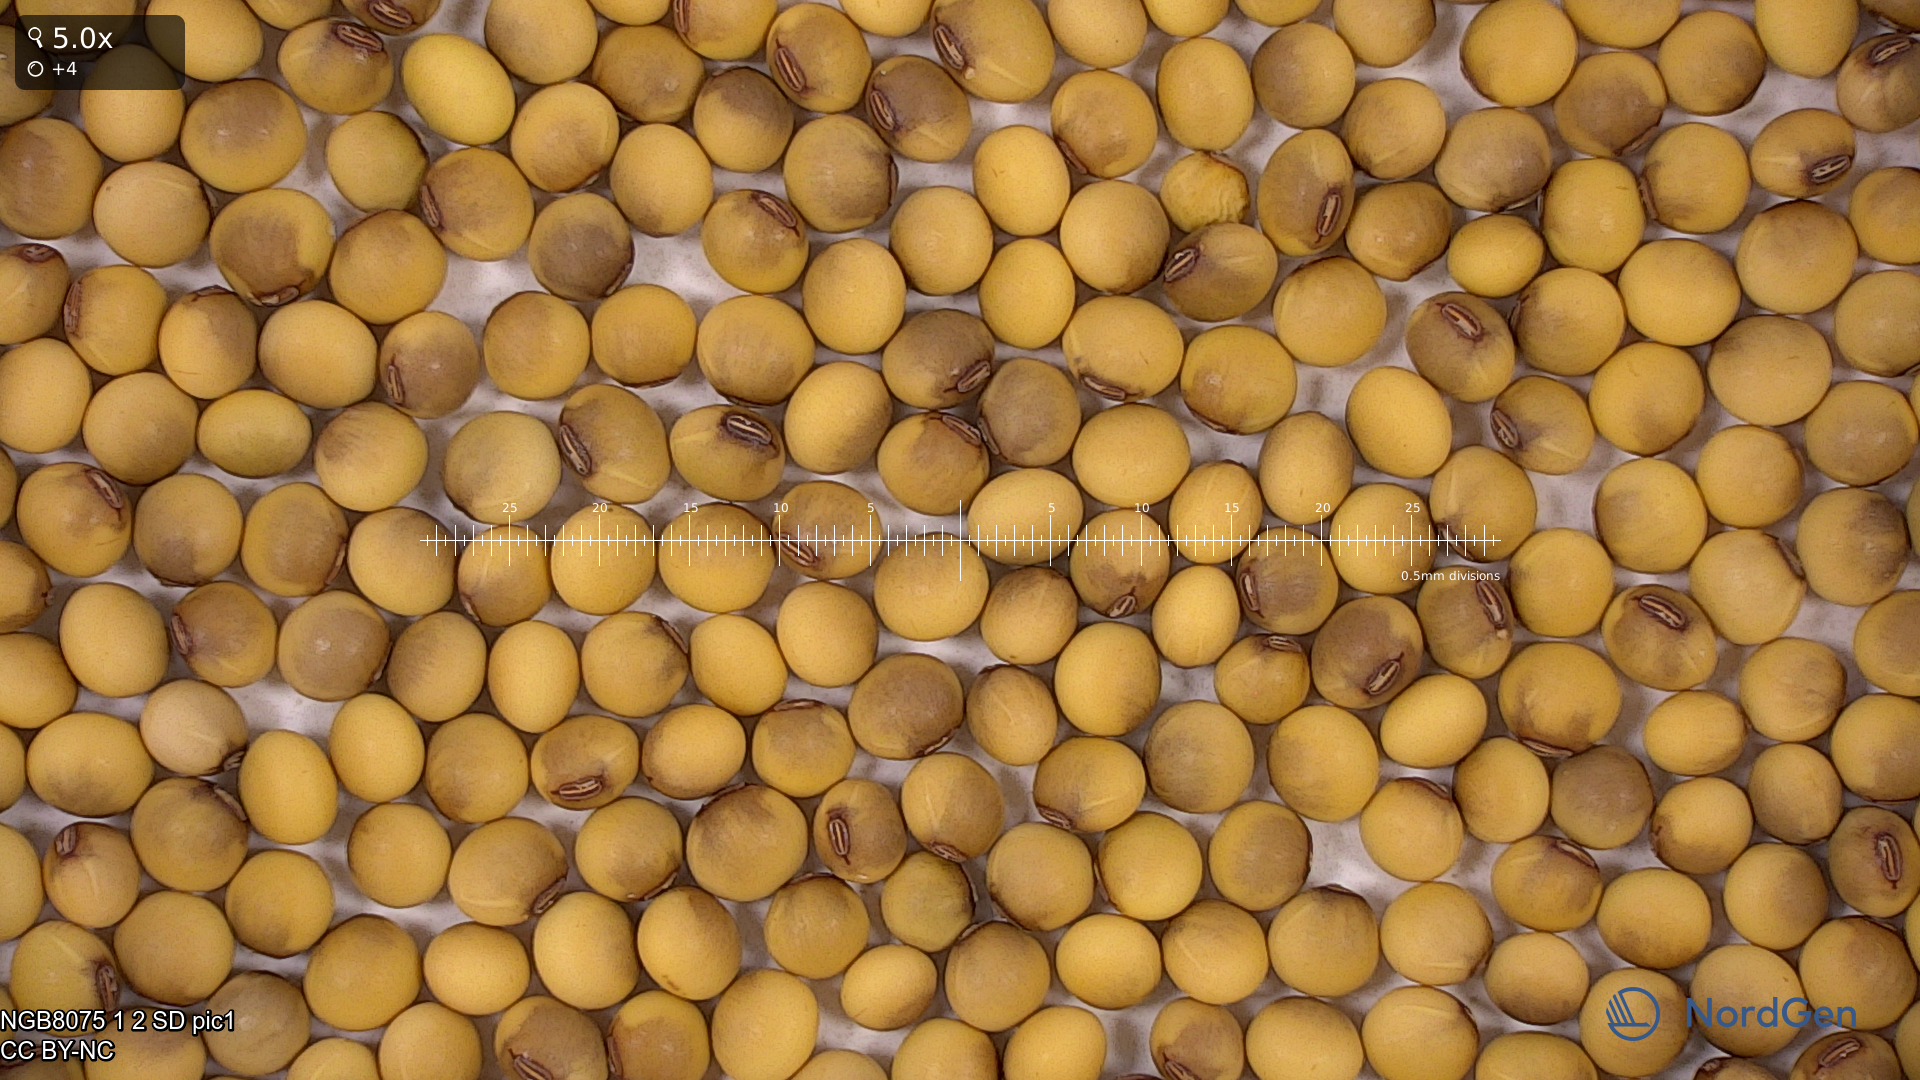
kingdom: Plantae
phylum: Tracheophyta
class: Magnoliopsida
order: Fabales
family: Fabaceae
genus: Glycine
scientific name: Glycine max
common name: Soya-bean
